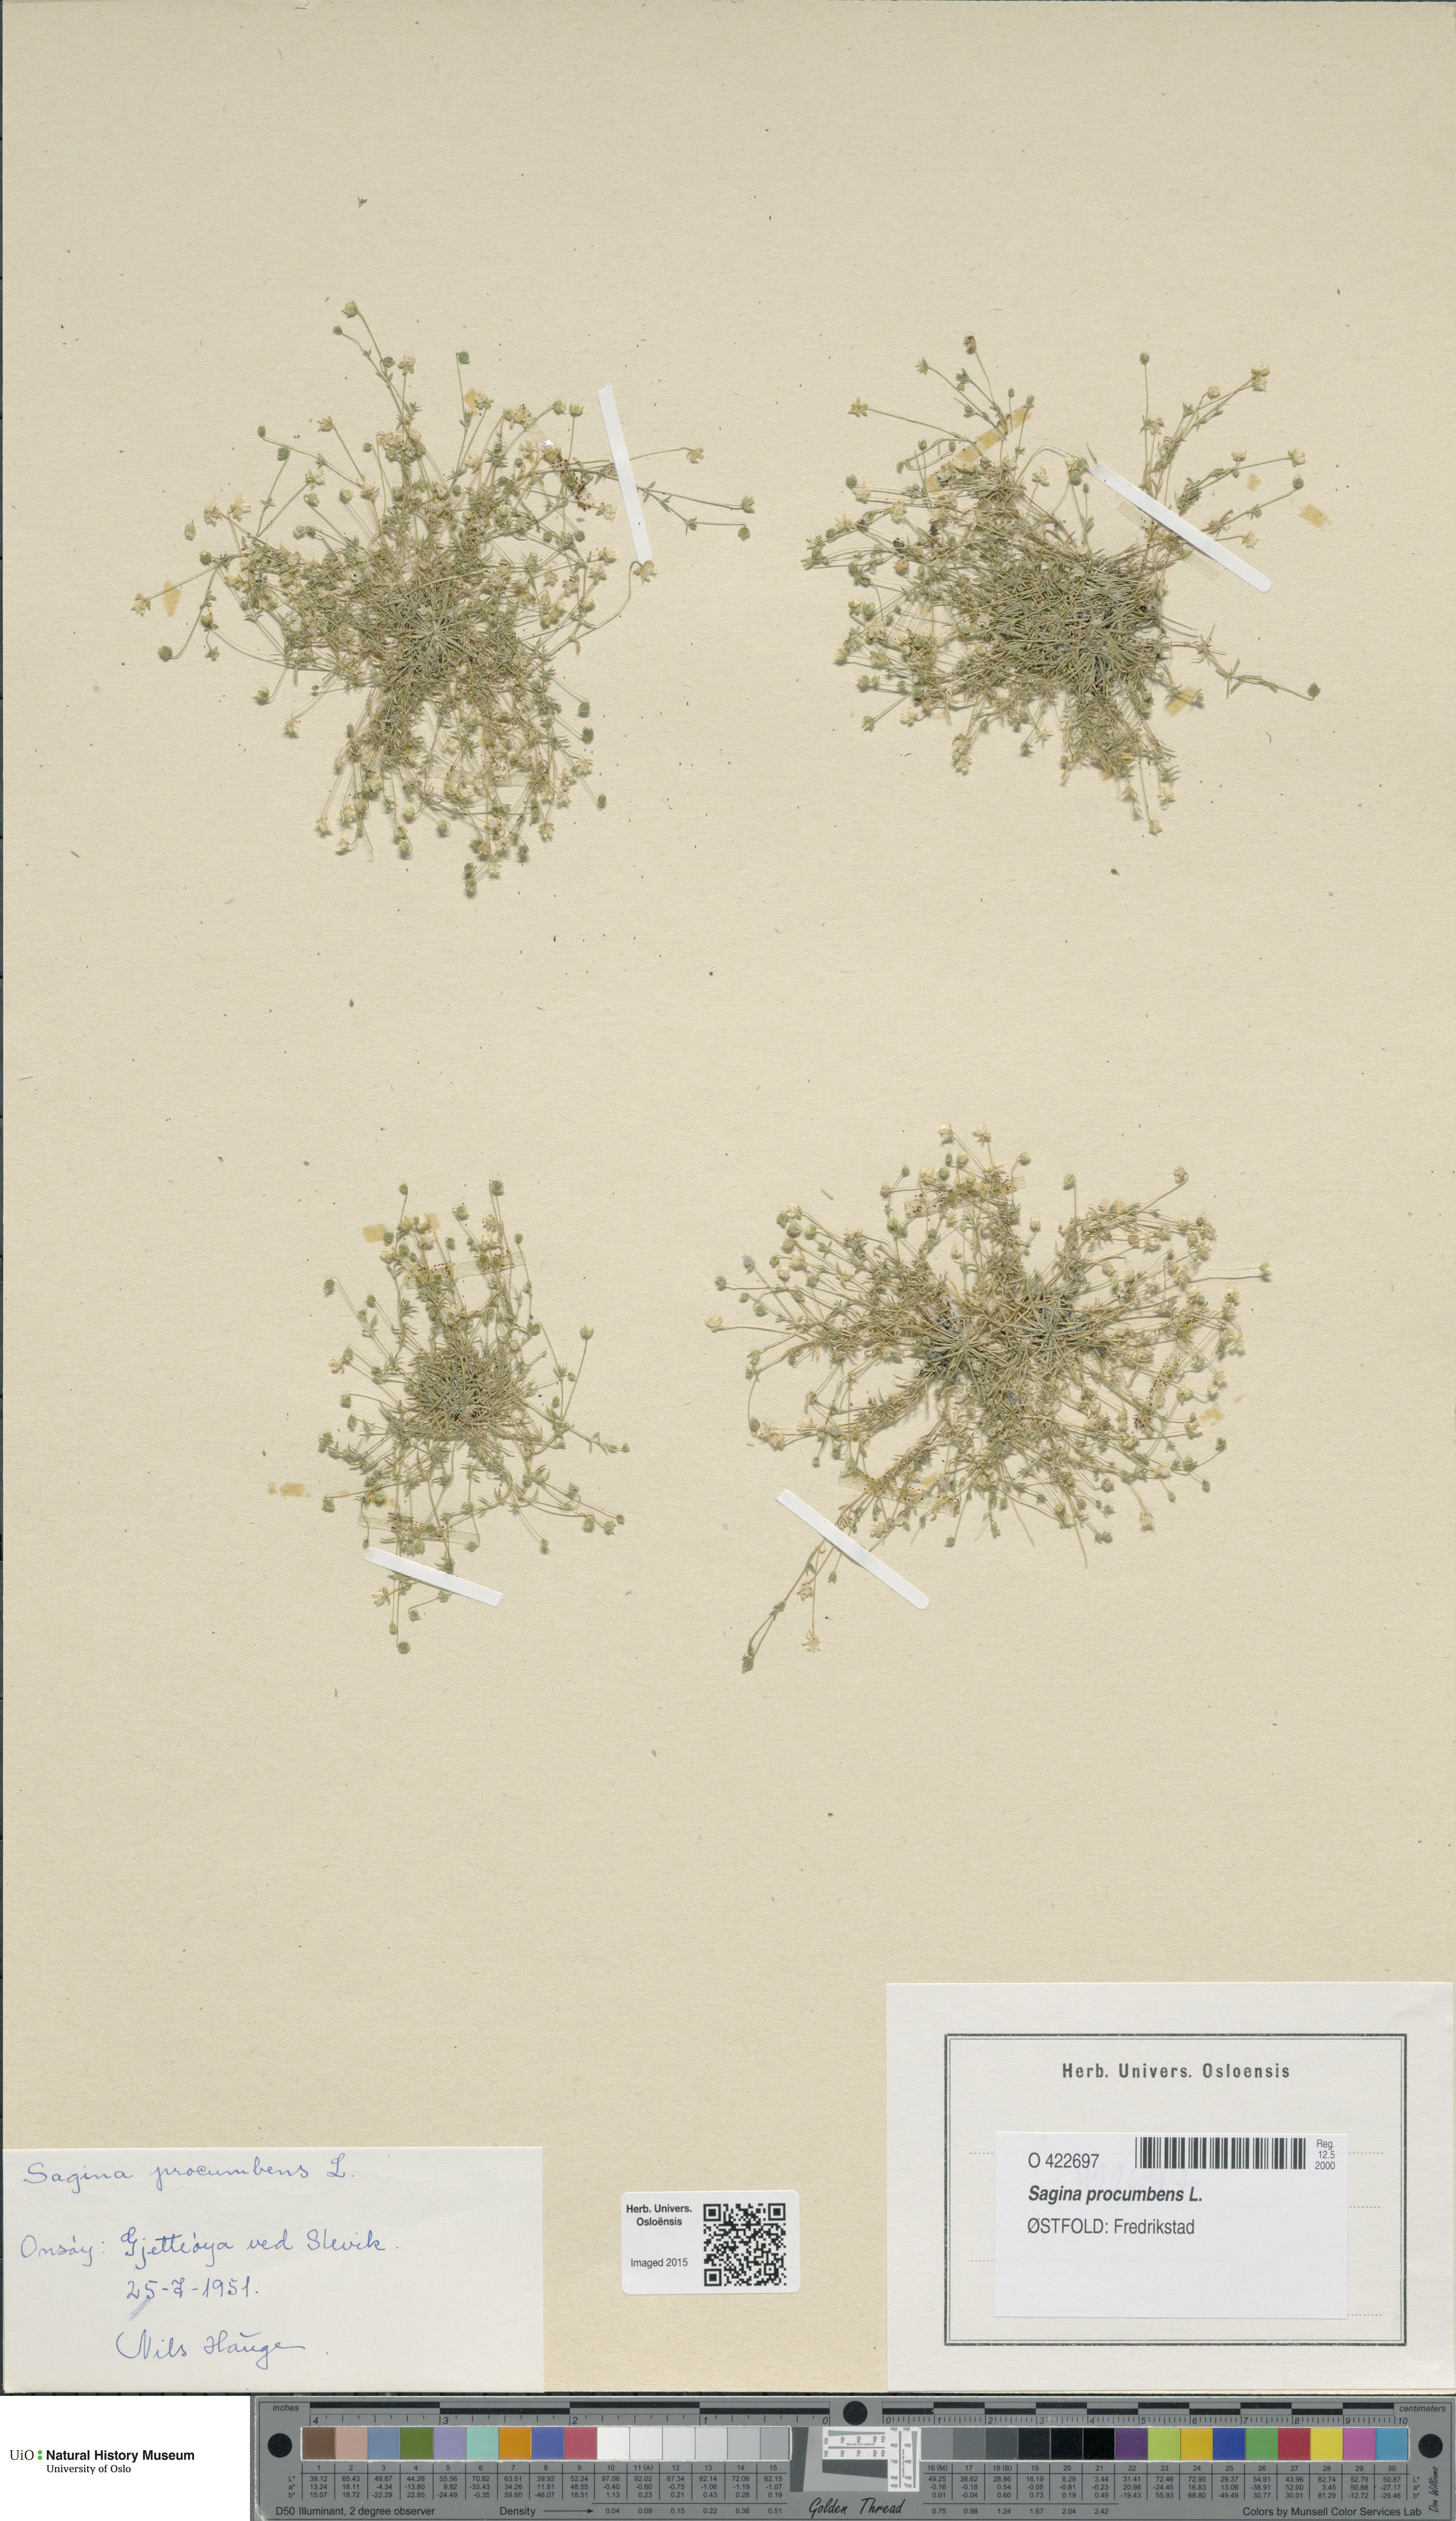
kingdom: Plantae
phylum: Tracheophyta
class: Magnoliopsida
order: Caryophyllales
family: Caryophyllaceae
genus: Sagina
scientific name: Sagina procumbens
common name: Procumbent pearlwort
